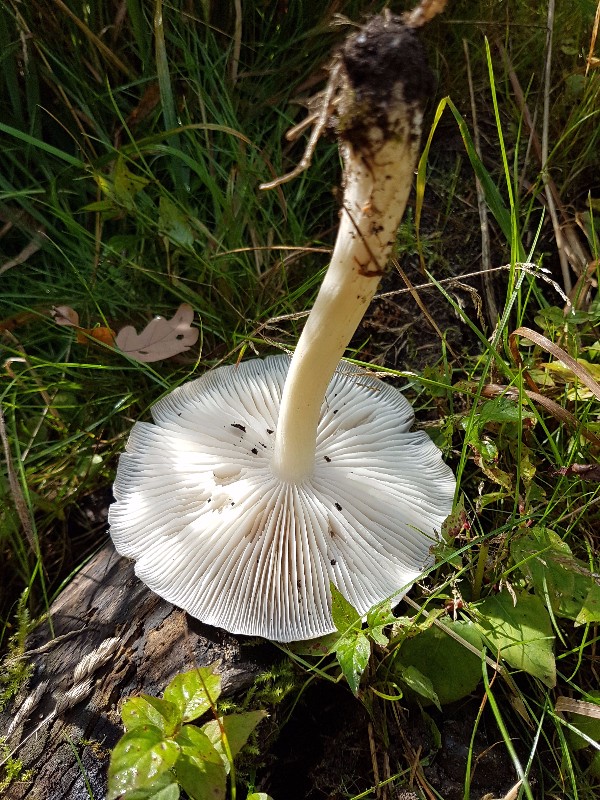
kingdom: Fungi
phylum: Basidiomycota
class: Agaricomycetes
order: Agaricales
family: Tricholomataceae
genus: Megacollybia
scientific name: Megacollybia platyphylla
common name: bredbladet væbnerhat
